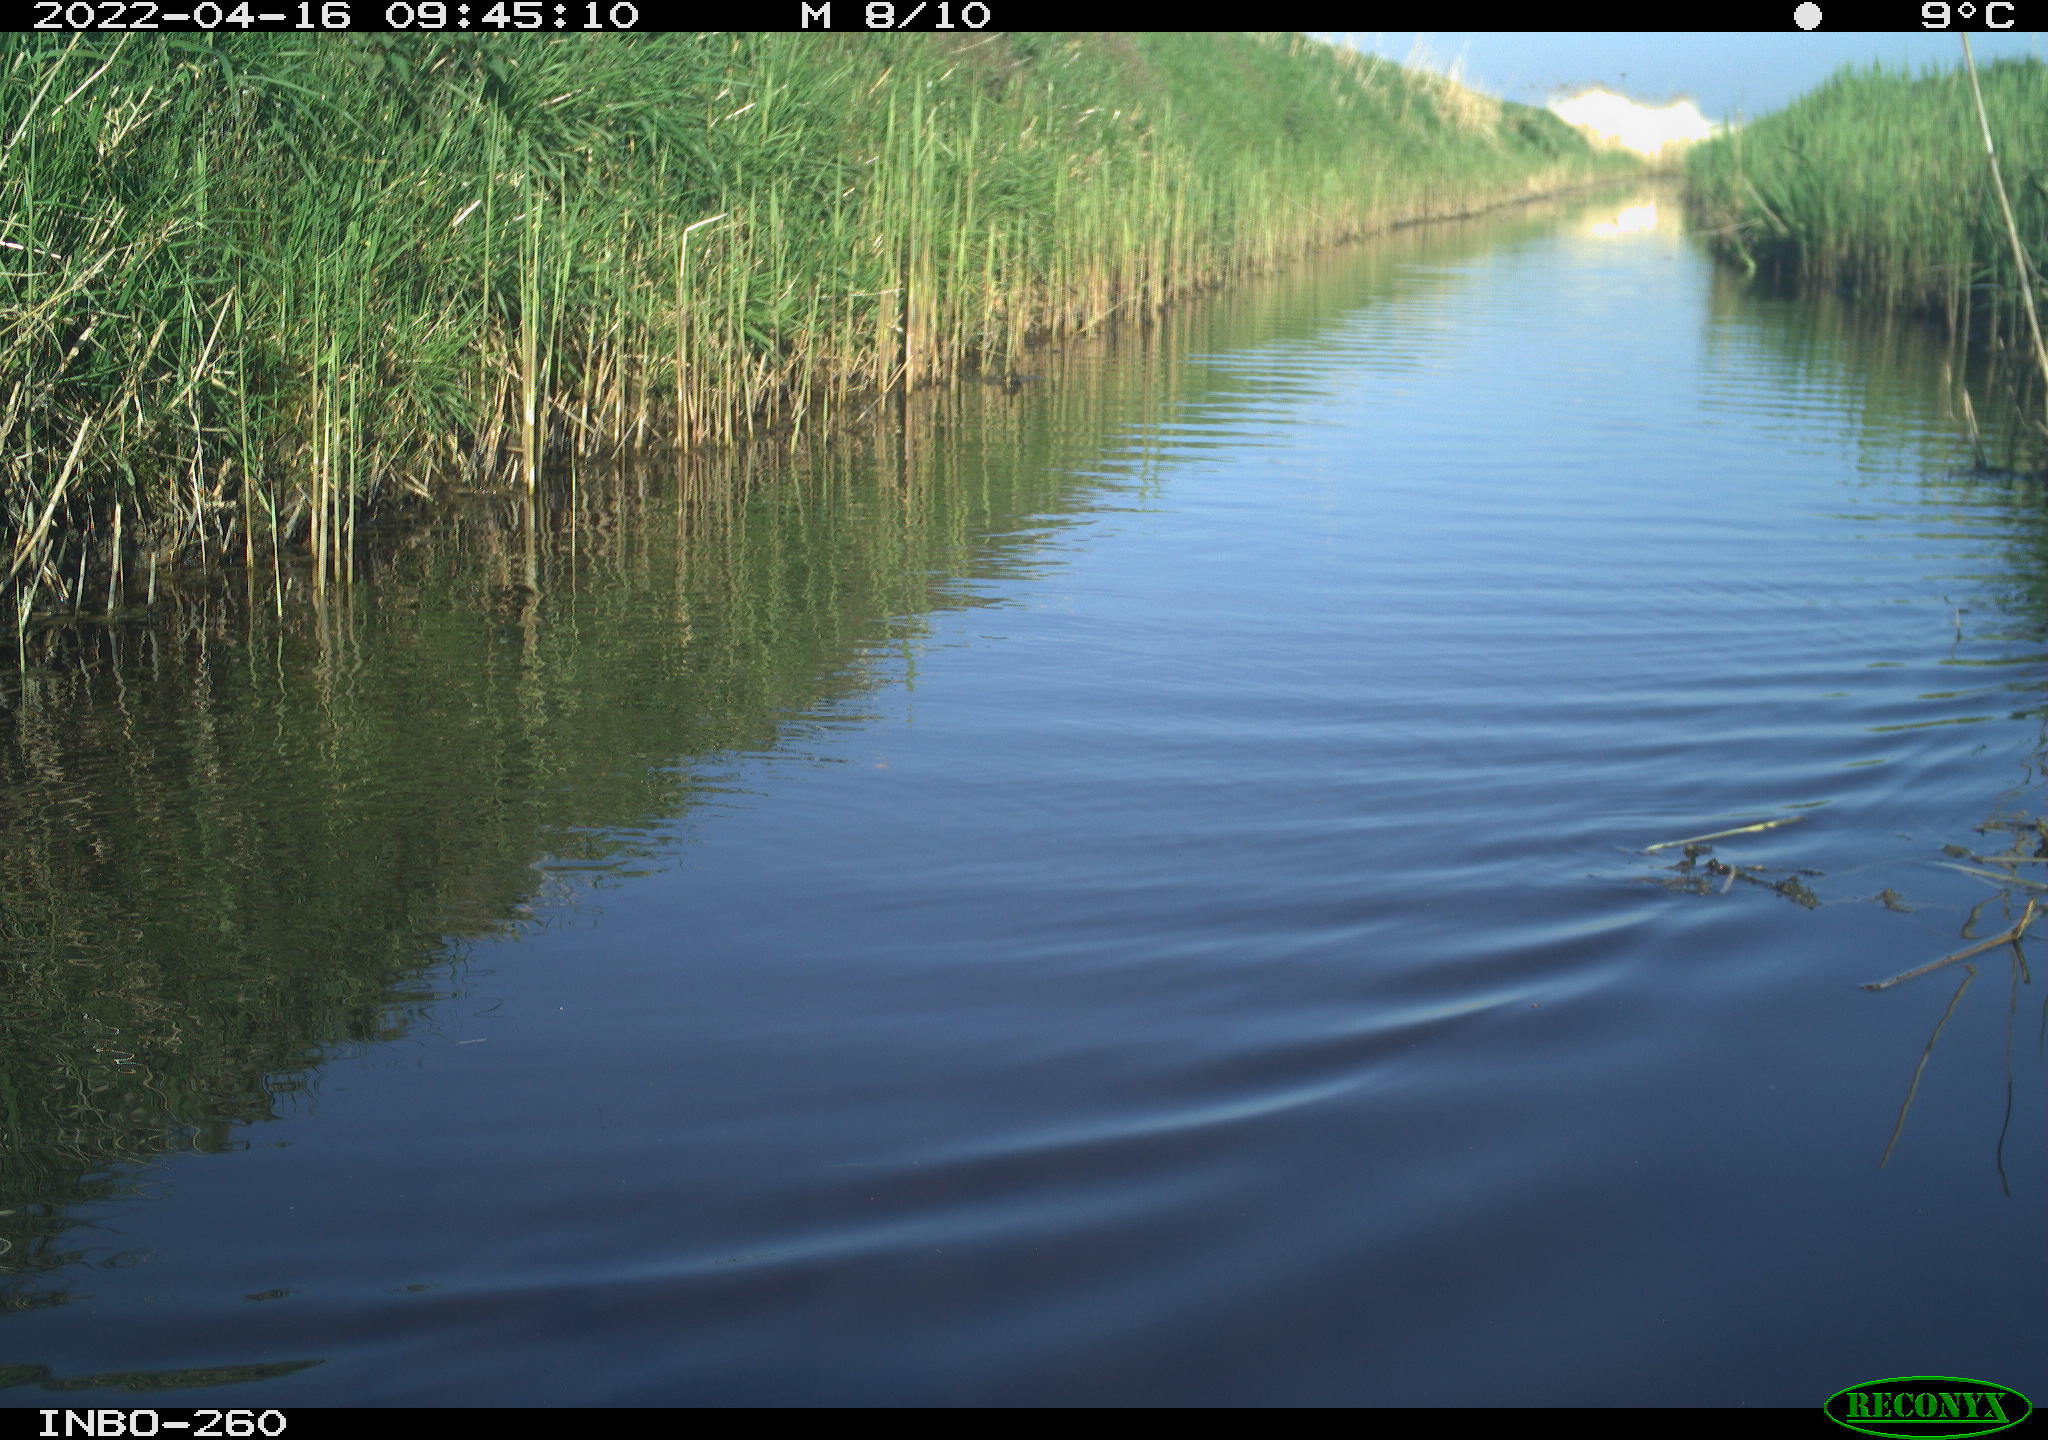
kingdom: Animalia
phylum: Chordata
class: Aves
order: Gruiformes
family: Rallidae
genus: Fulica
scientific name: Fulica atra
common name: Eurasian coot
